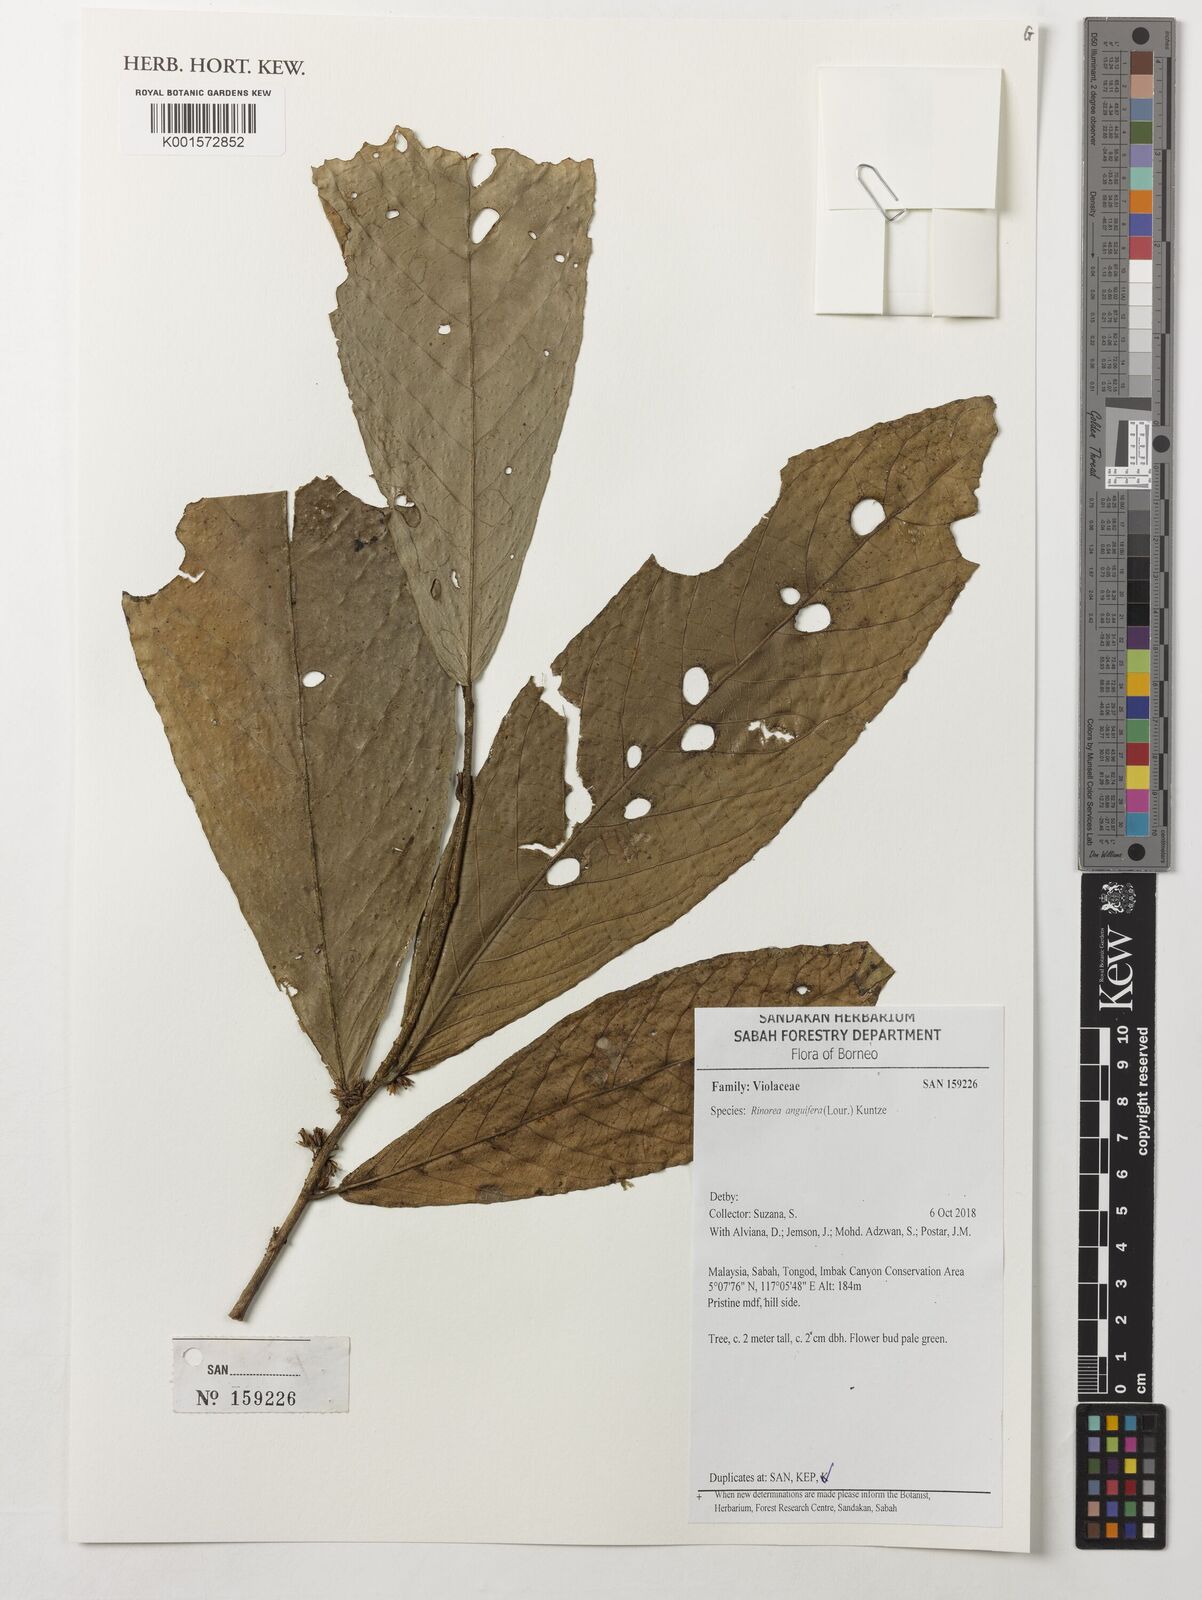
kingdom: Plantae
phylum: Tracheophyta
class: Magnoliopsida
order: Malpighiales
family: Violaceae
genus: Rinorea
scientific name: Rinorea anguifera
